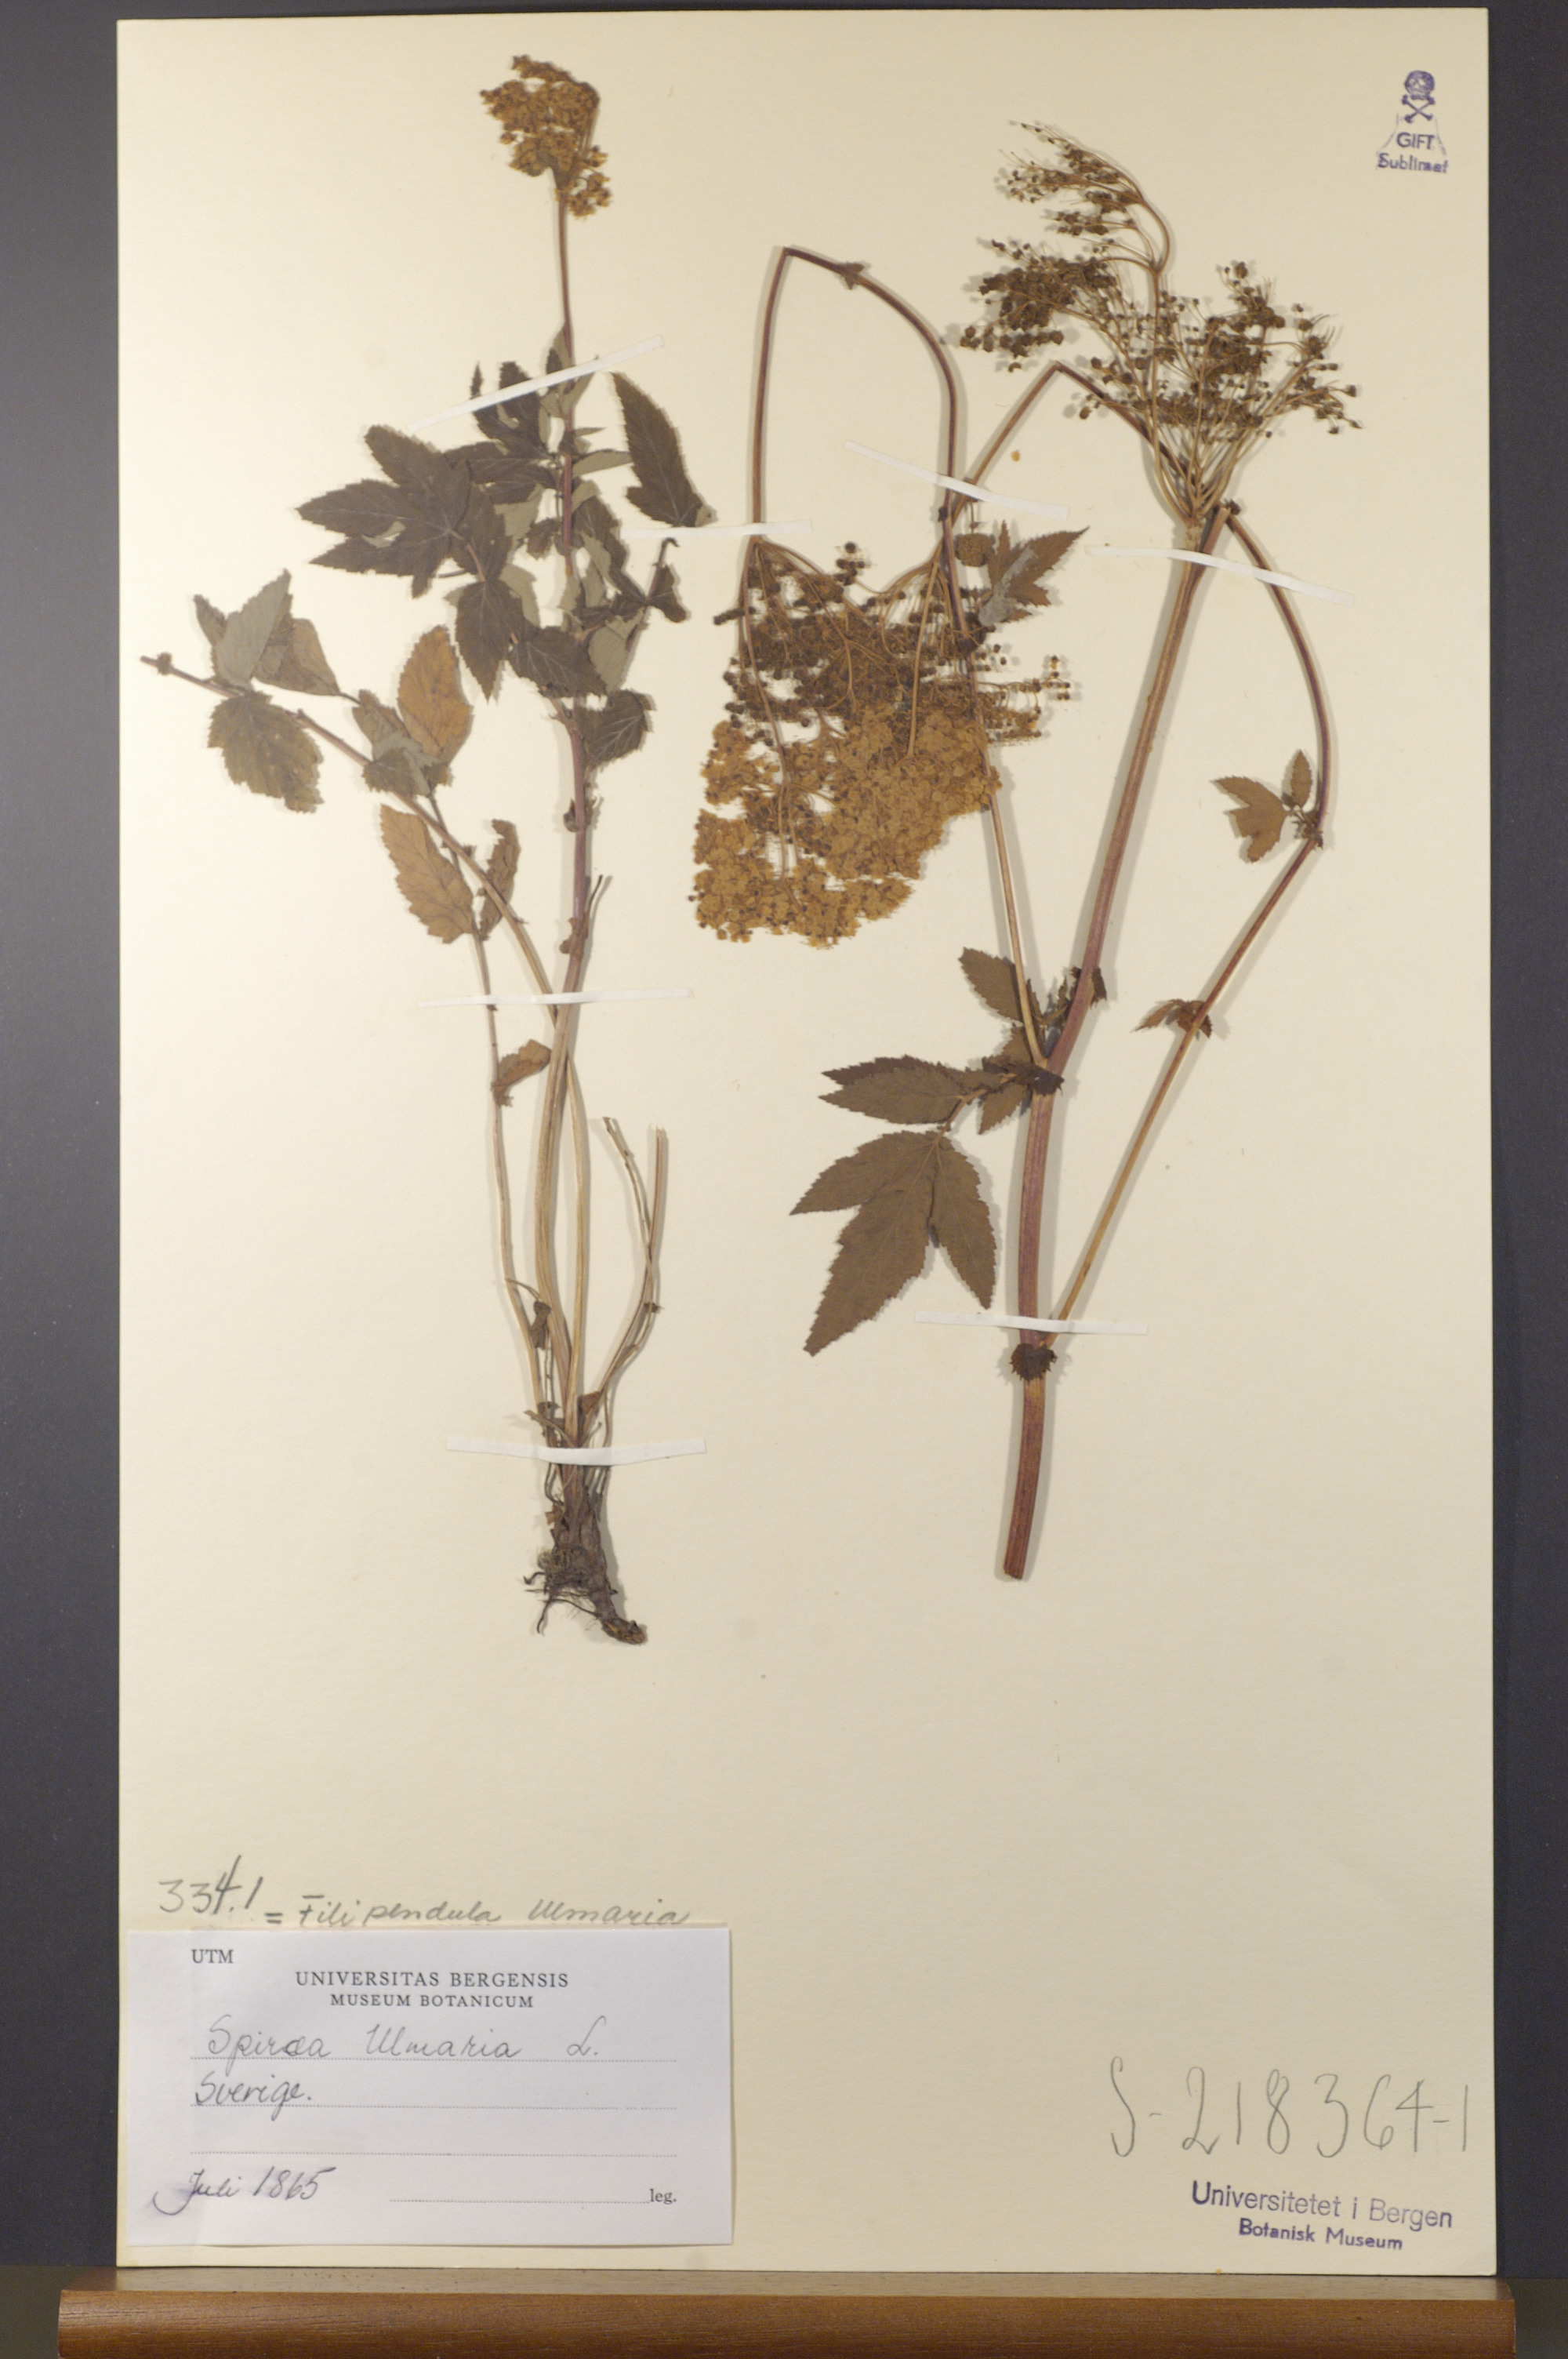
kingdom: Plantae
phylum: Tracheophyta
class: Magnoliopsida
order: Rosales
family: Rosaceae
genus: Filipendula
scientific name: Filipendula ulmaria
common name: Meadowsweet
